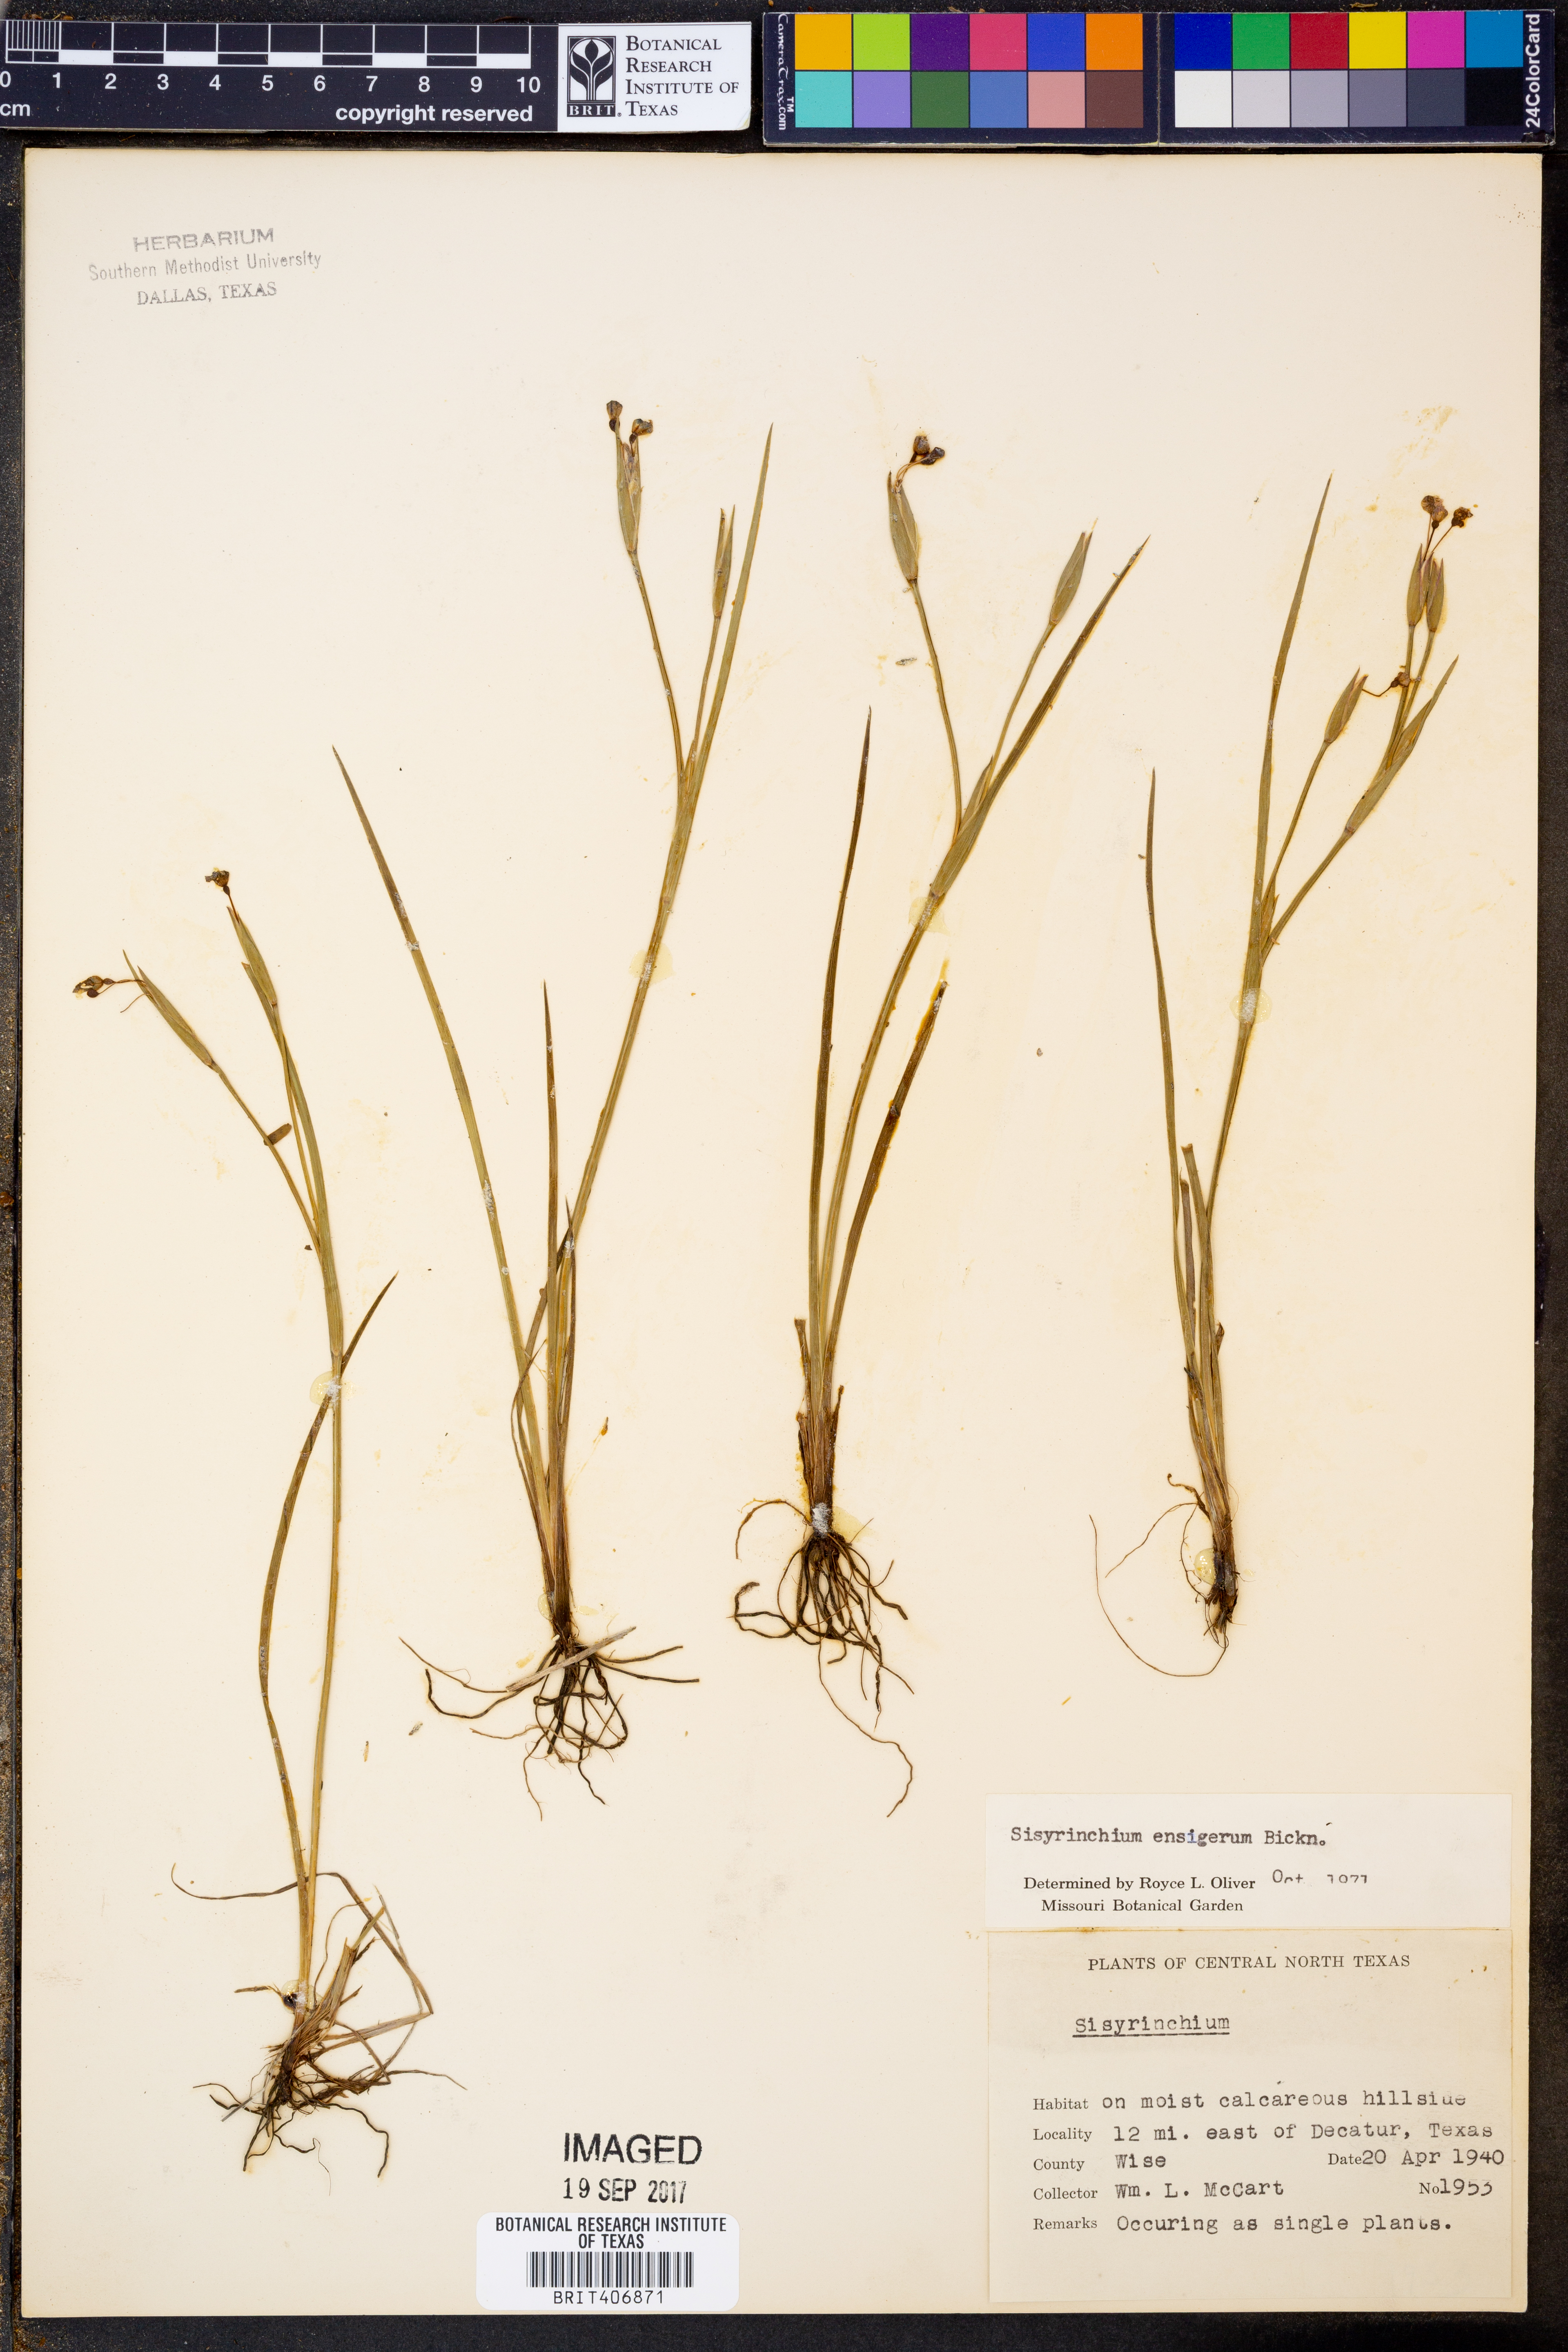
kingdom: Plantae
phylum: Tracheophyta
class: Liliopsida
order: Asparagales
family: Iridaceae
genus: Sisyrinchium
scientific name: Sisyrinchium ensigerum
